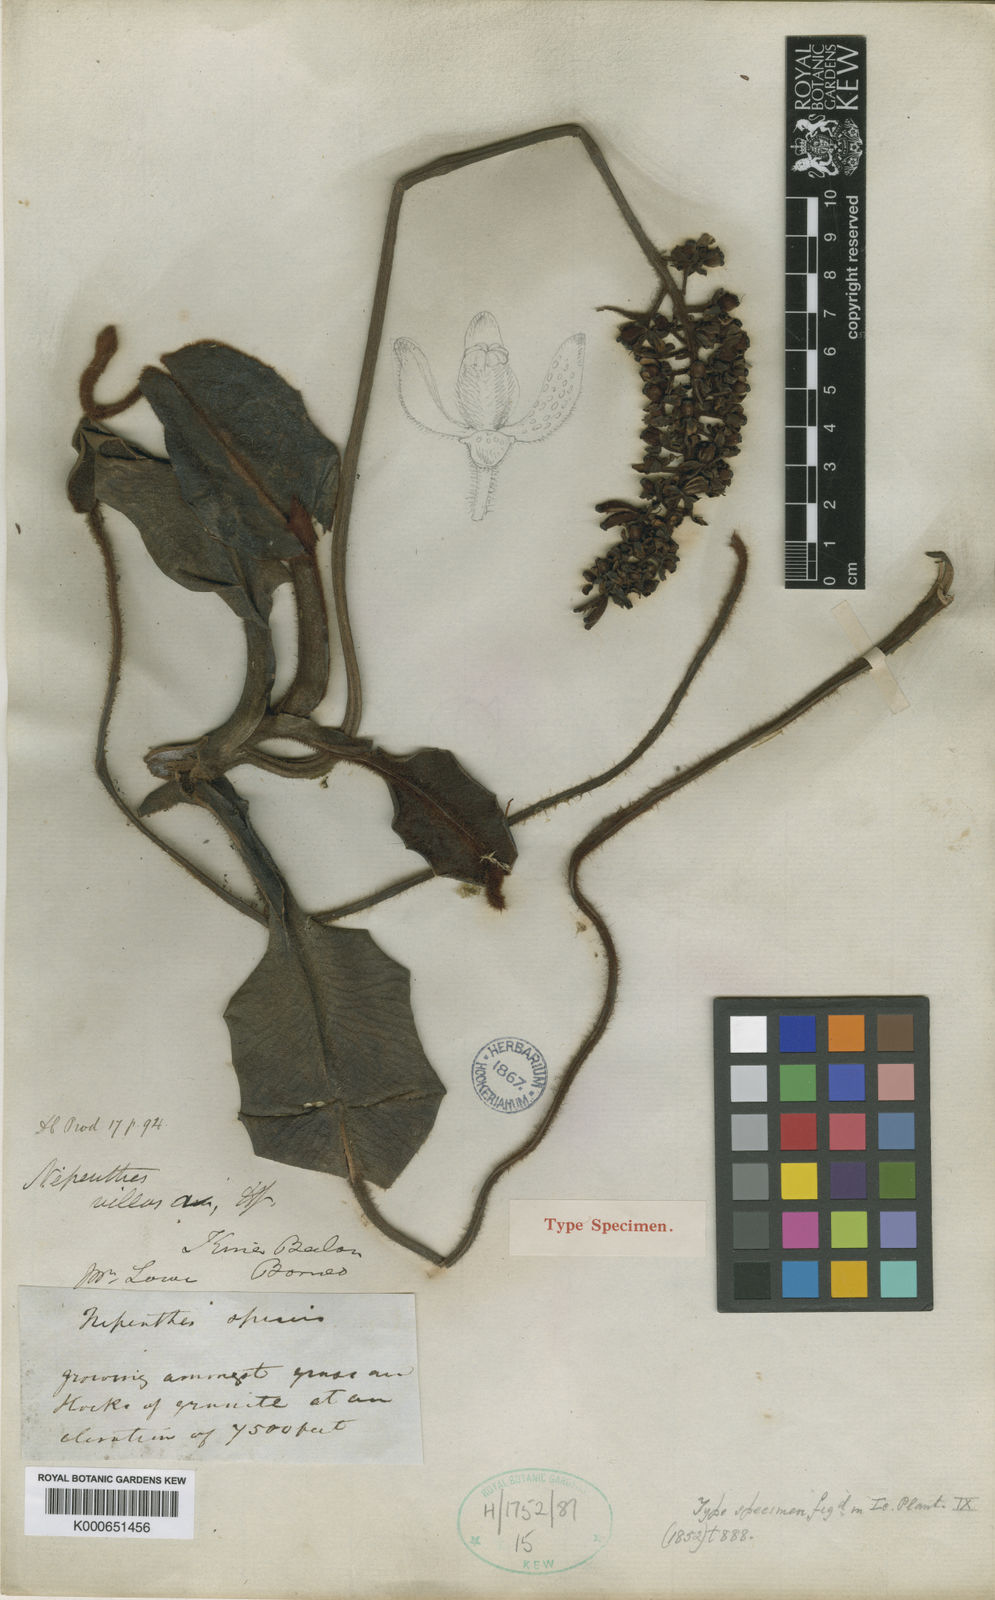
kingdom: Plantae
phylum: Tracheophyta
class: Magnoliopsida
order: Caryophyllales
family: Nepenthaceae
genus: Nepenthes
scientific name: Nepenthes villosa
